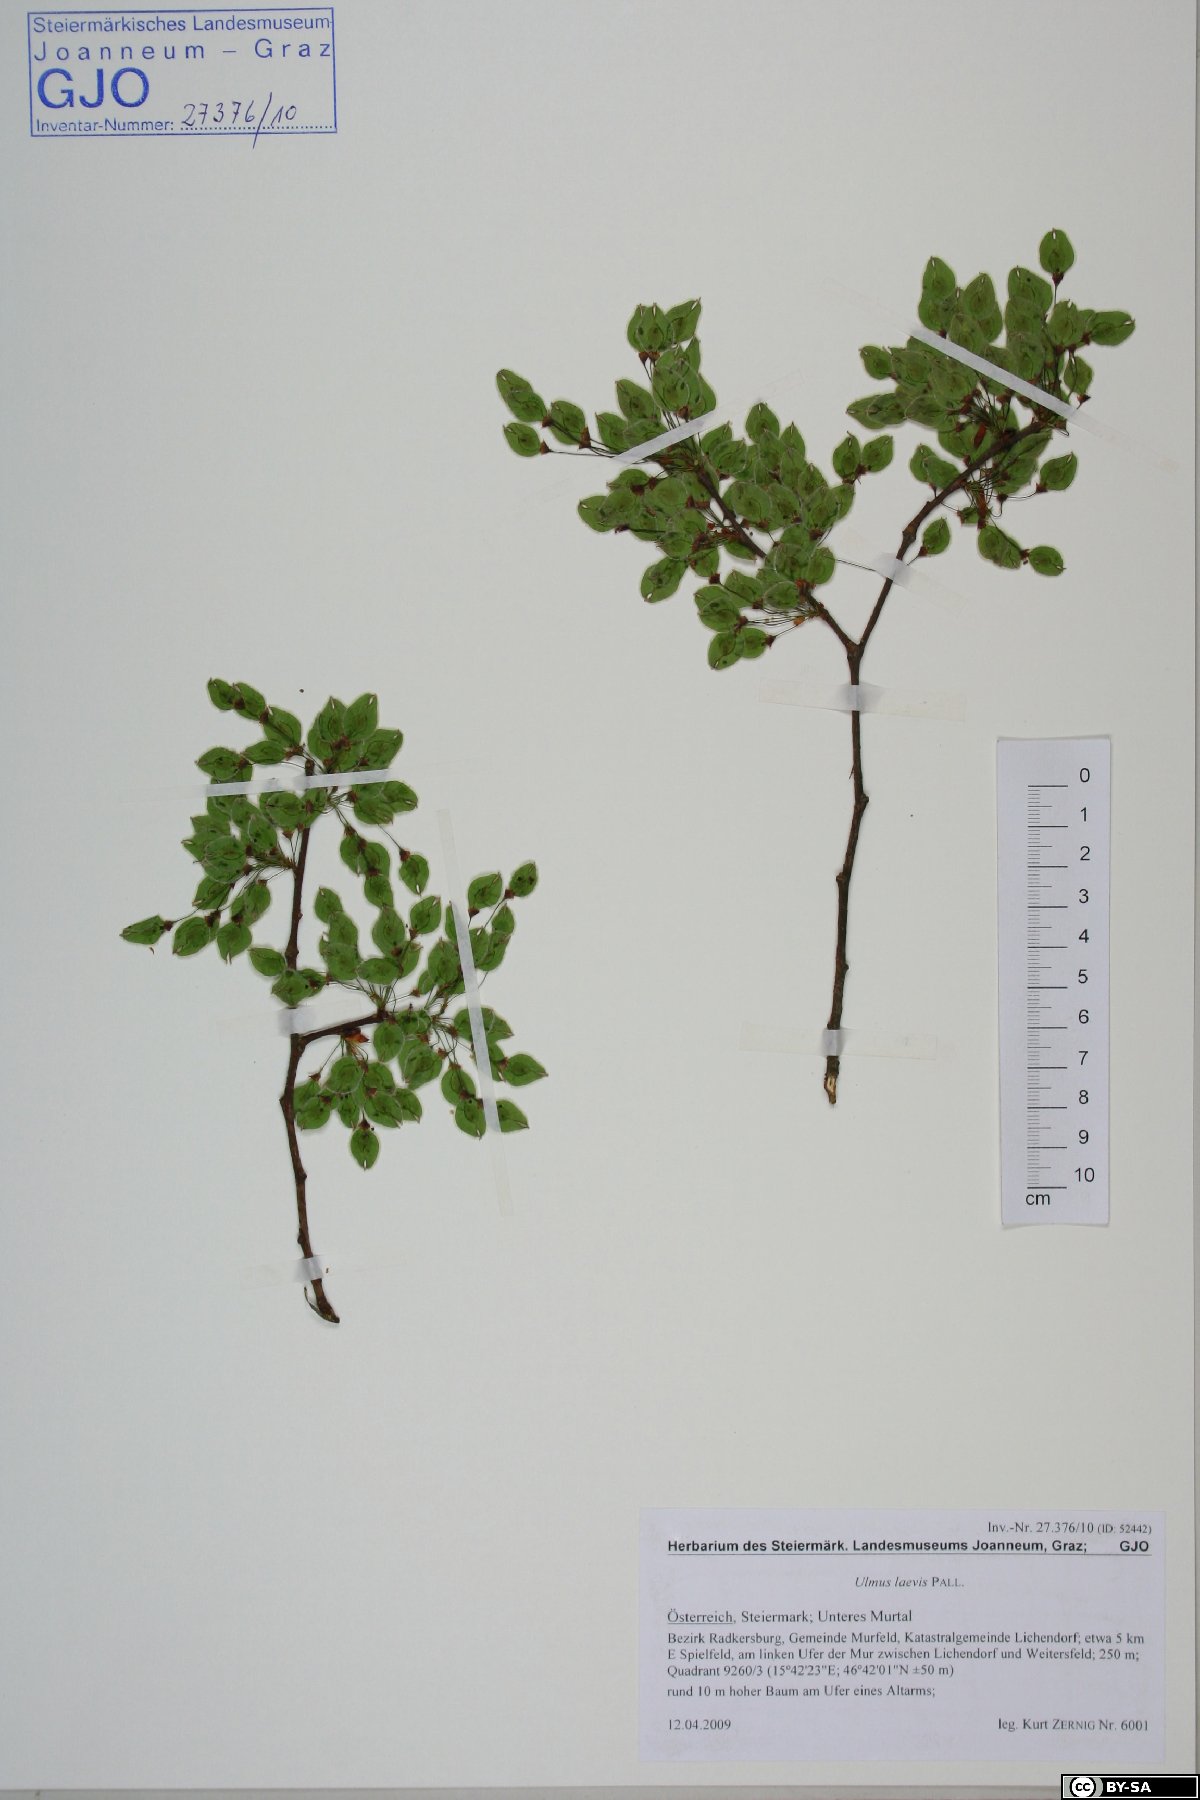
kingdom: Plantae
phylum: Tracheophyta
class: Magnoliopsida
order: Rosales
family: Ulmaceae
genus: Ulmus
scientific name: Ulmus laevis
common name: European white-elm
